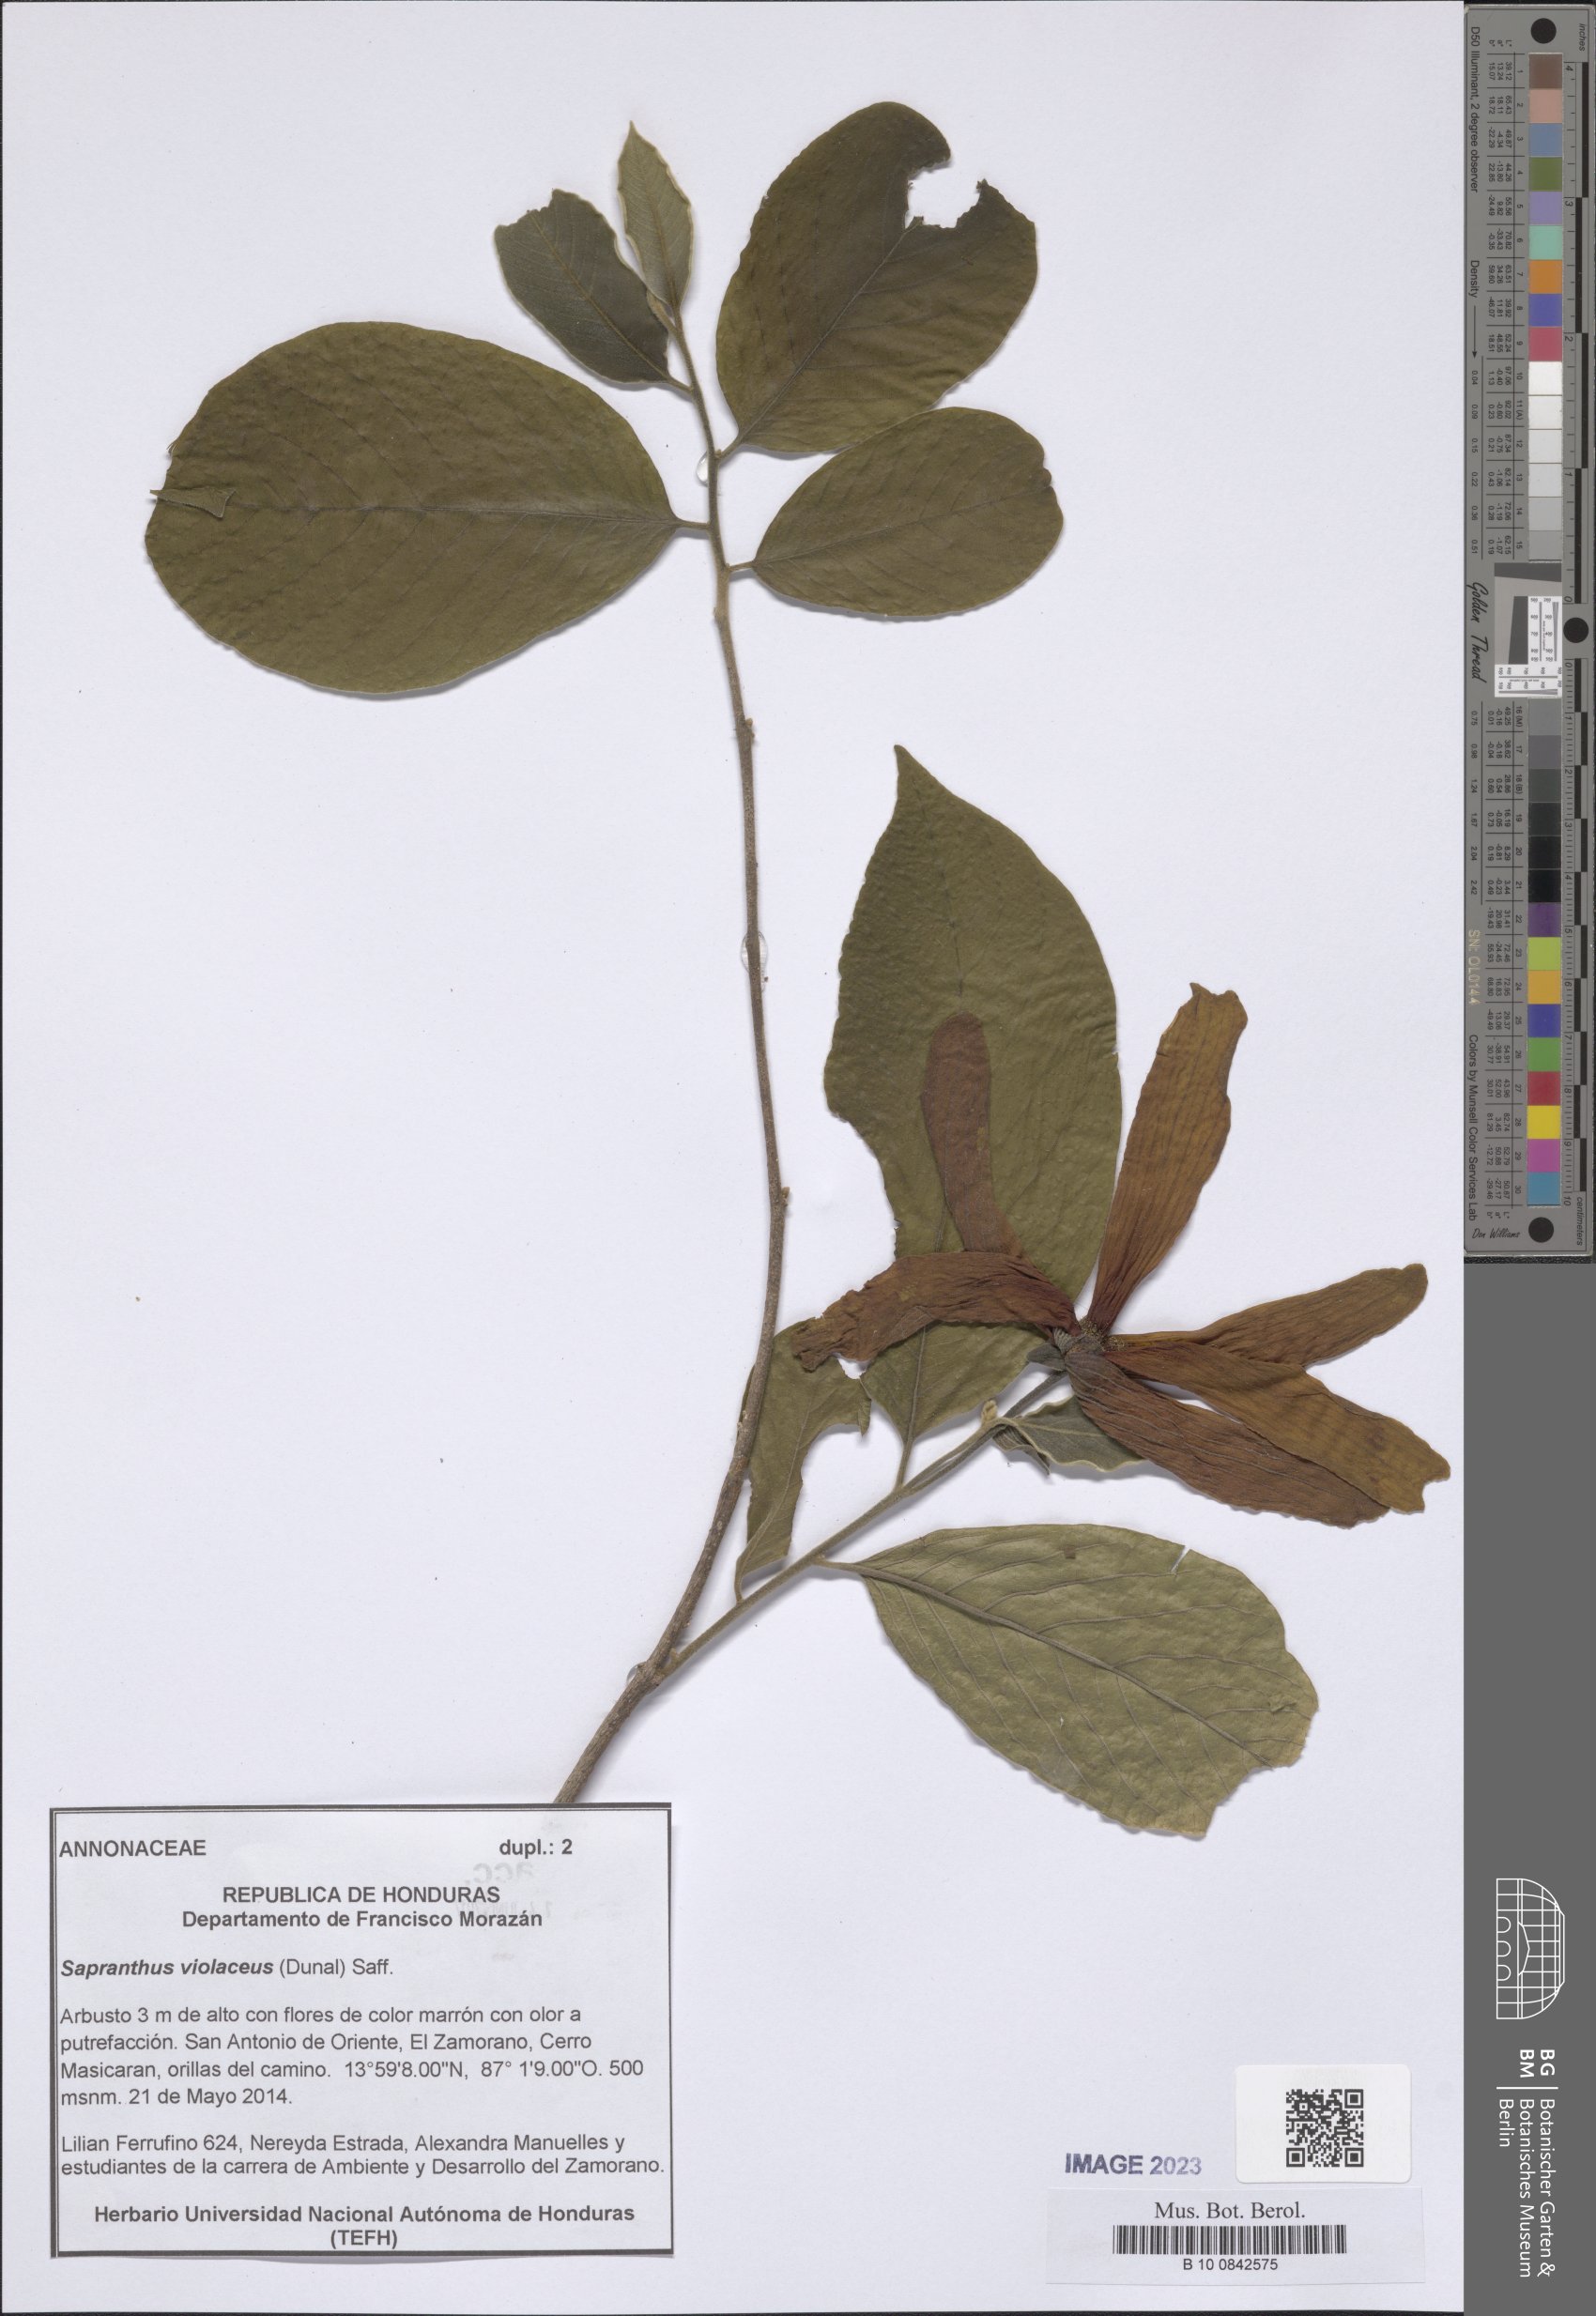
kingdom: Plantae
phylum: Tracheophyta
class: Magnoliopsida
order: Magnoliales
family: Annonaceae
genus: Sapranthus
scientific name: Sapranthus violaceus
